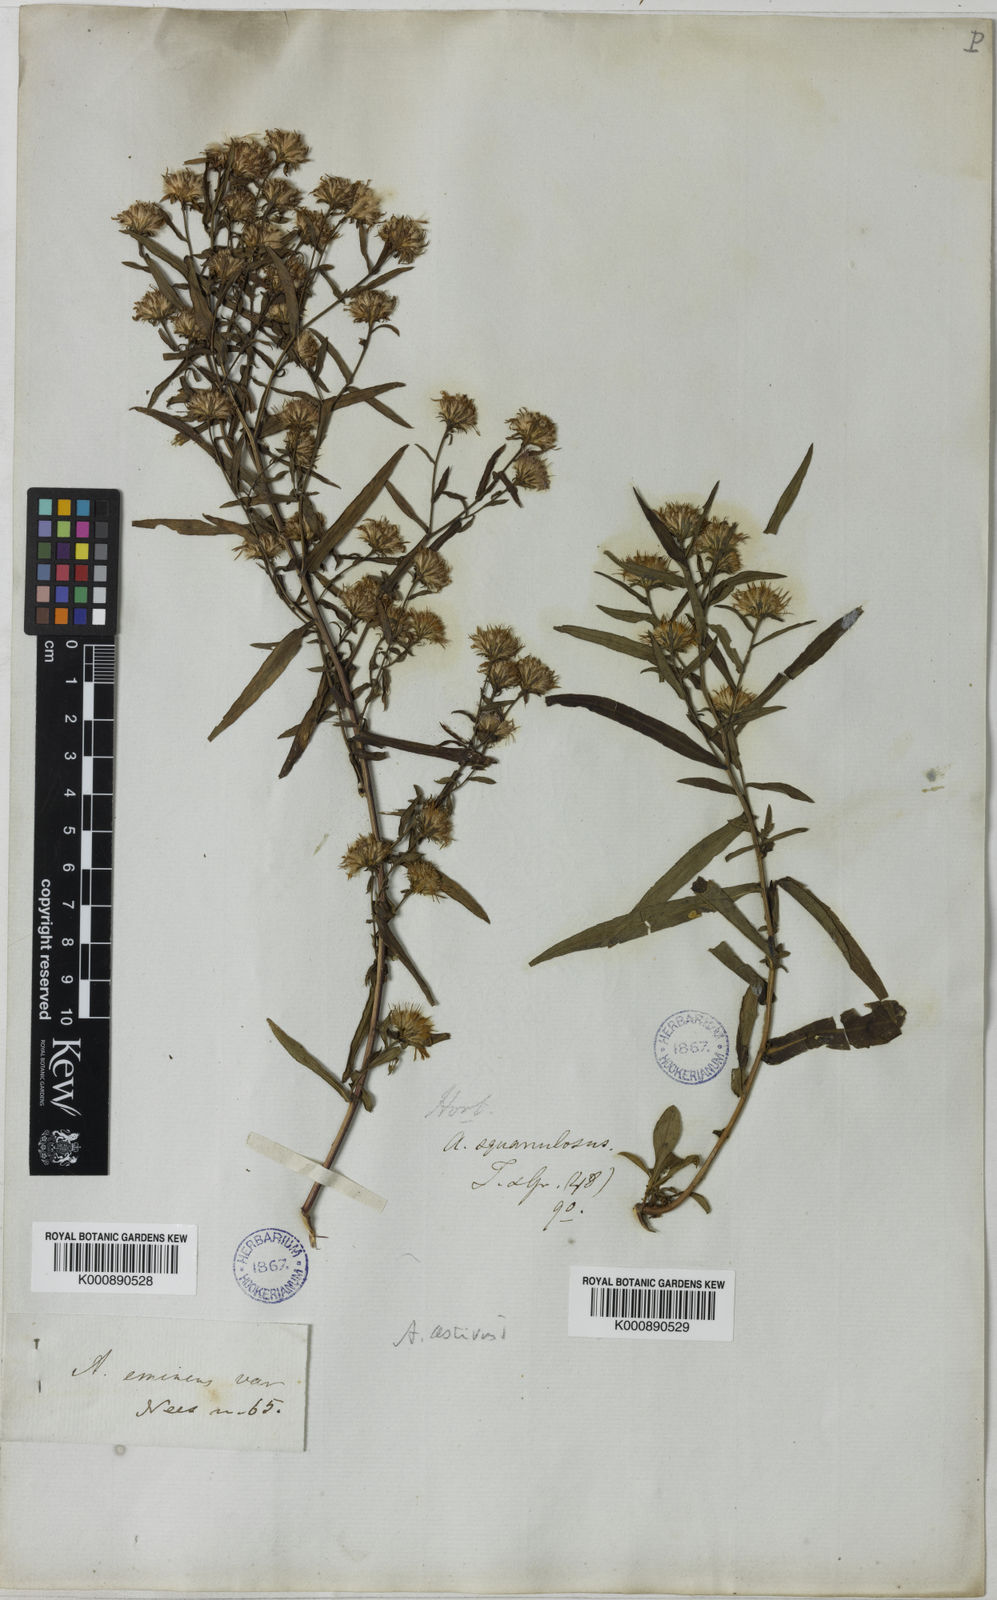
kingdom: Plantae
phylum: Tracheophyta
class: Magnoliopsida
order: Asterales
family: Asteraceae
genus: Symphyotrichum
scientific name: Symphyotrichum novi-belgii
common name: Michaelmas daisy
